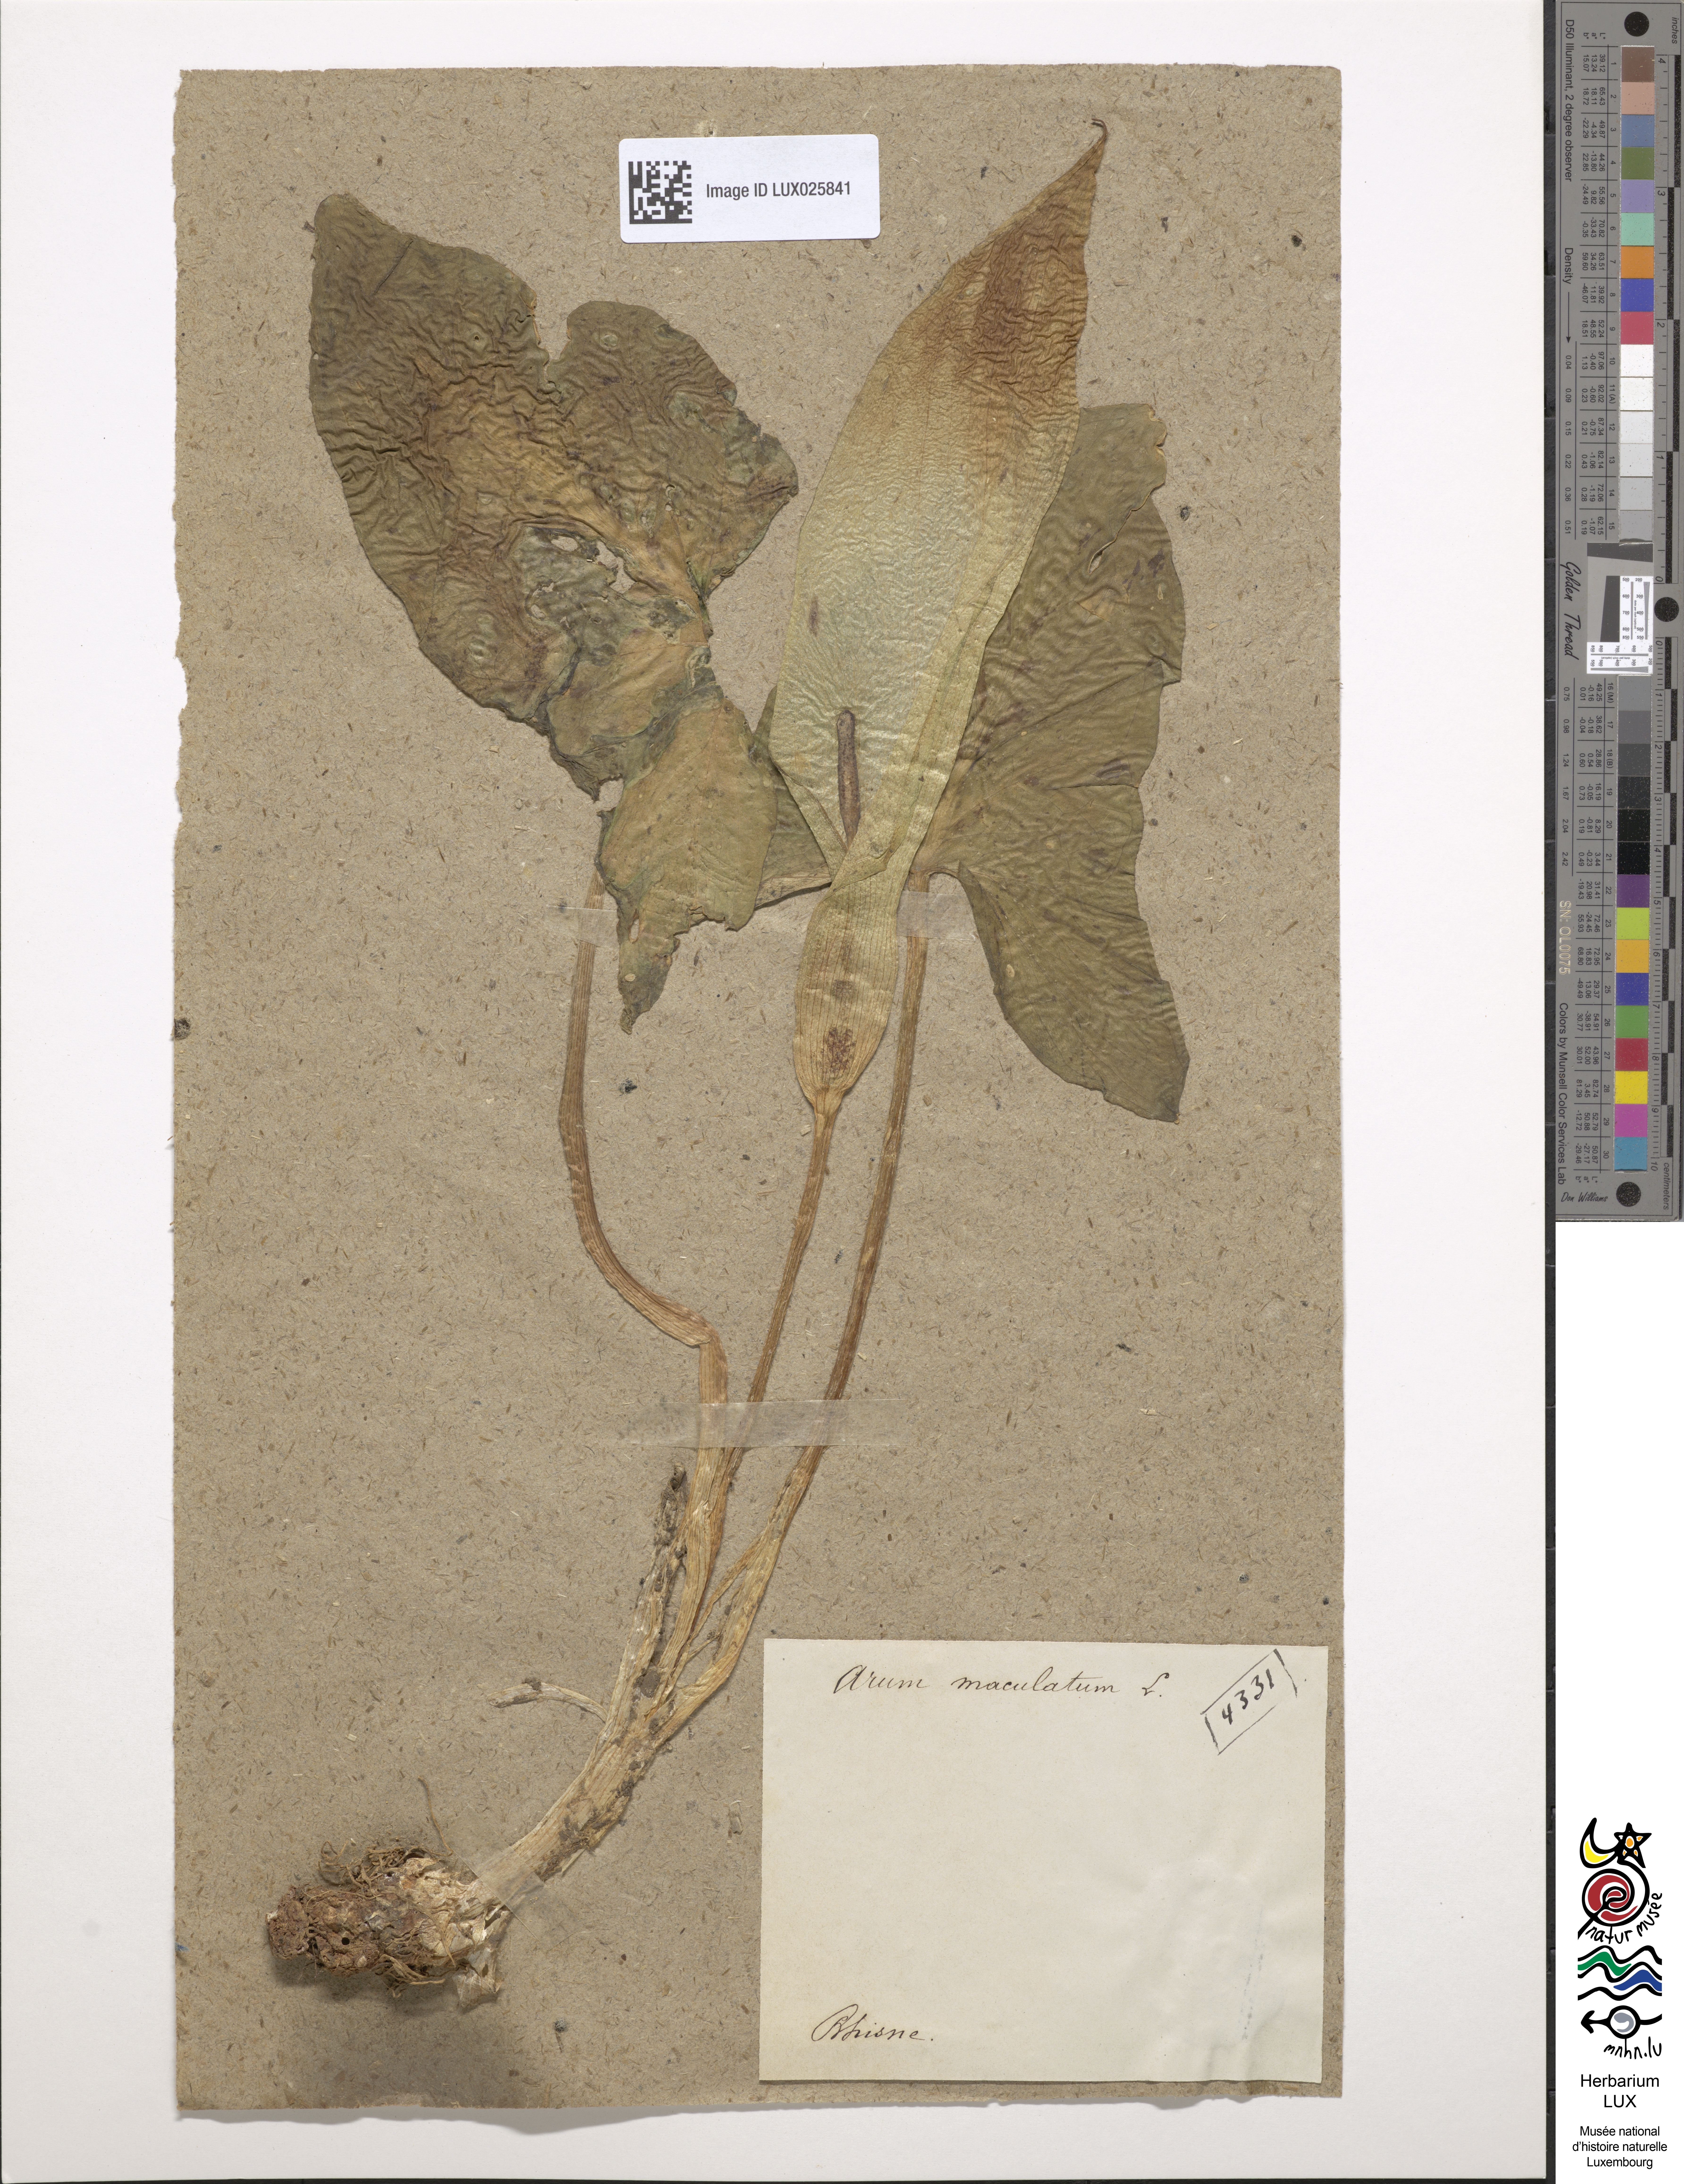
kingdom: Plantae
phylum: Tracheophyta
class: Liliopsida
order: Alismatales
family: Araceae
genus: Arum
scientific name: Arum maculatum
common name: Lords-and-ladies
